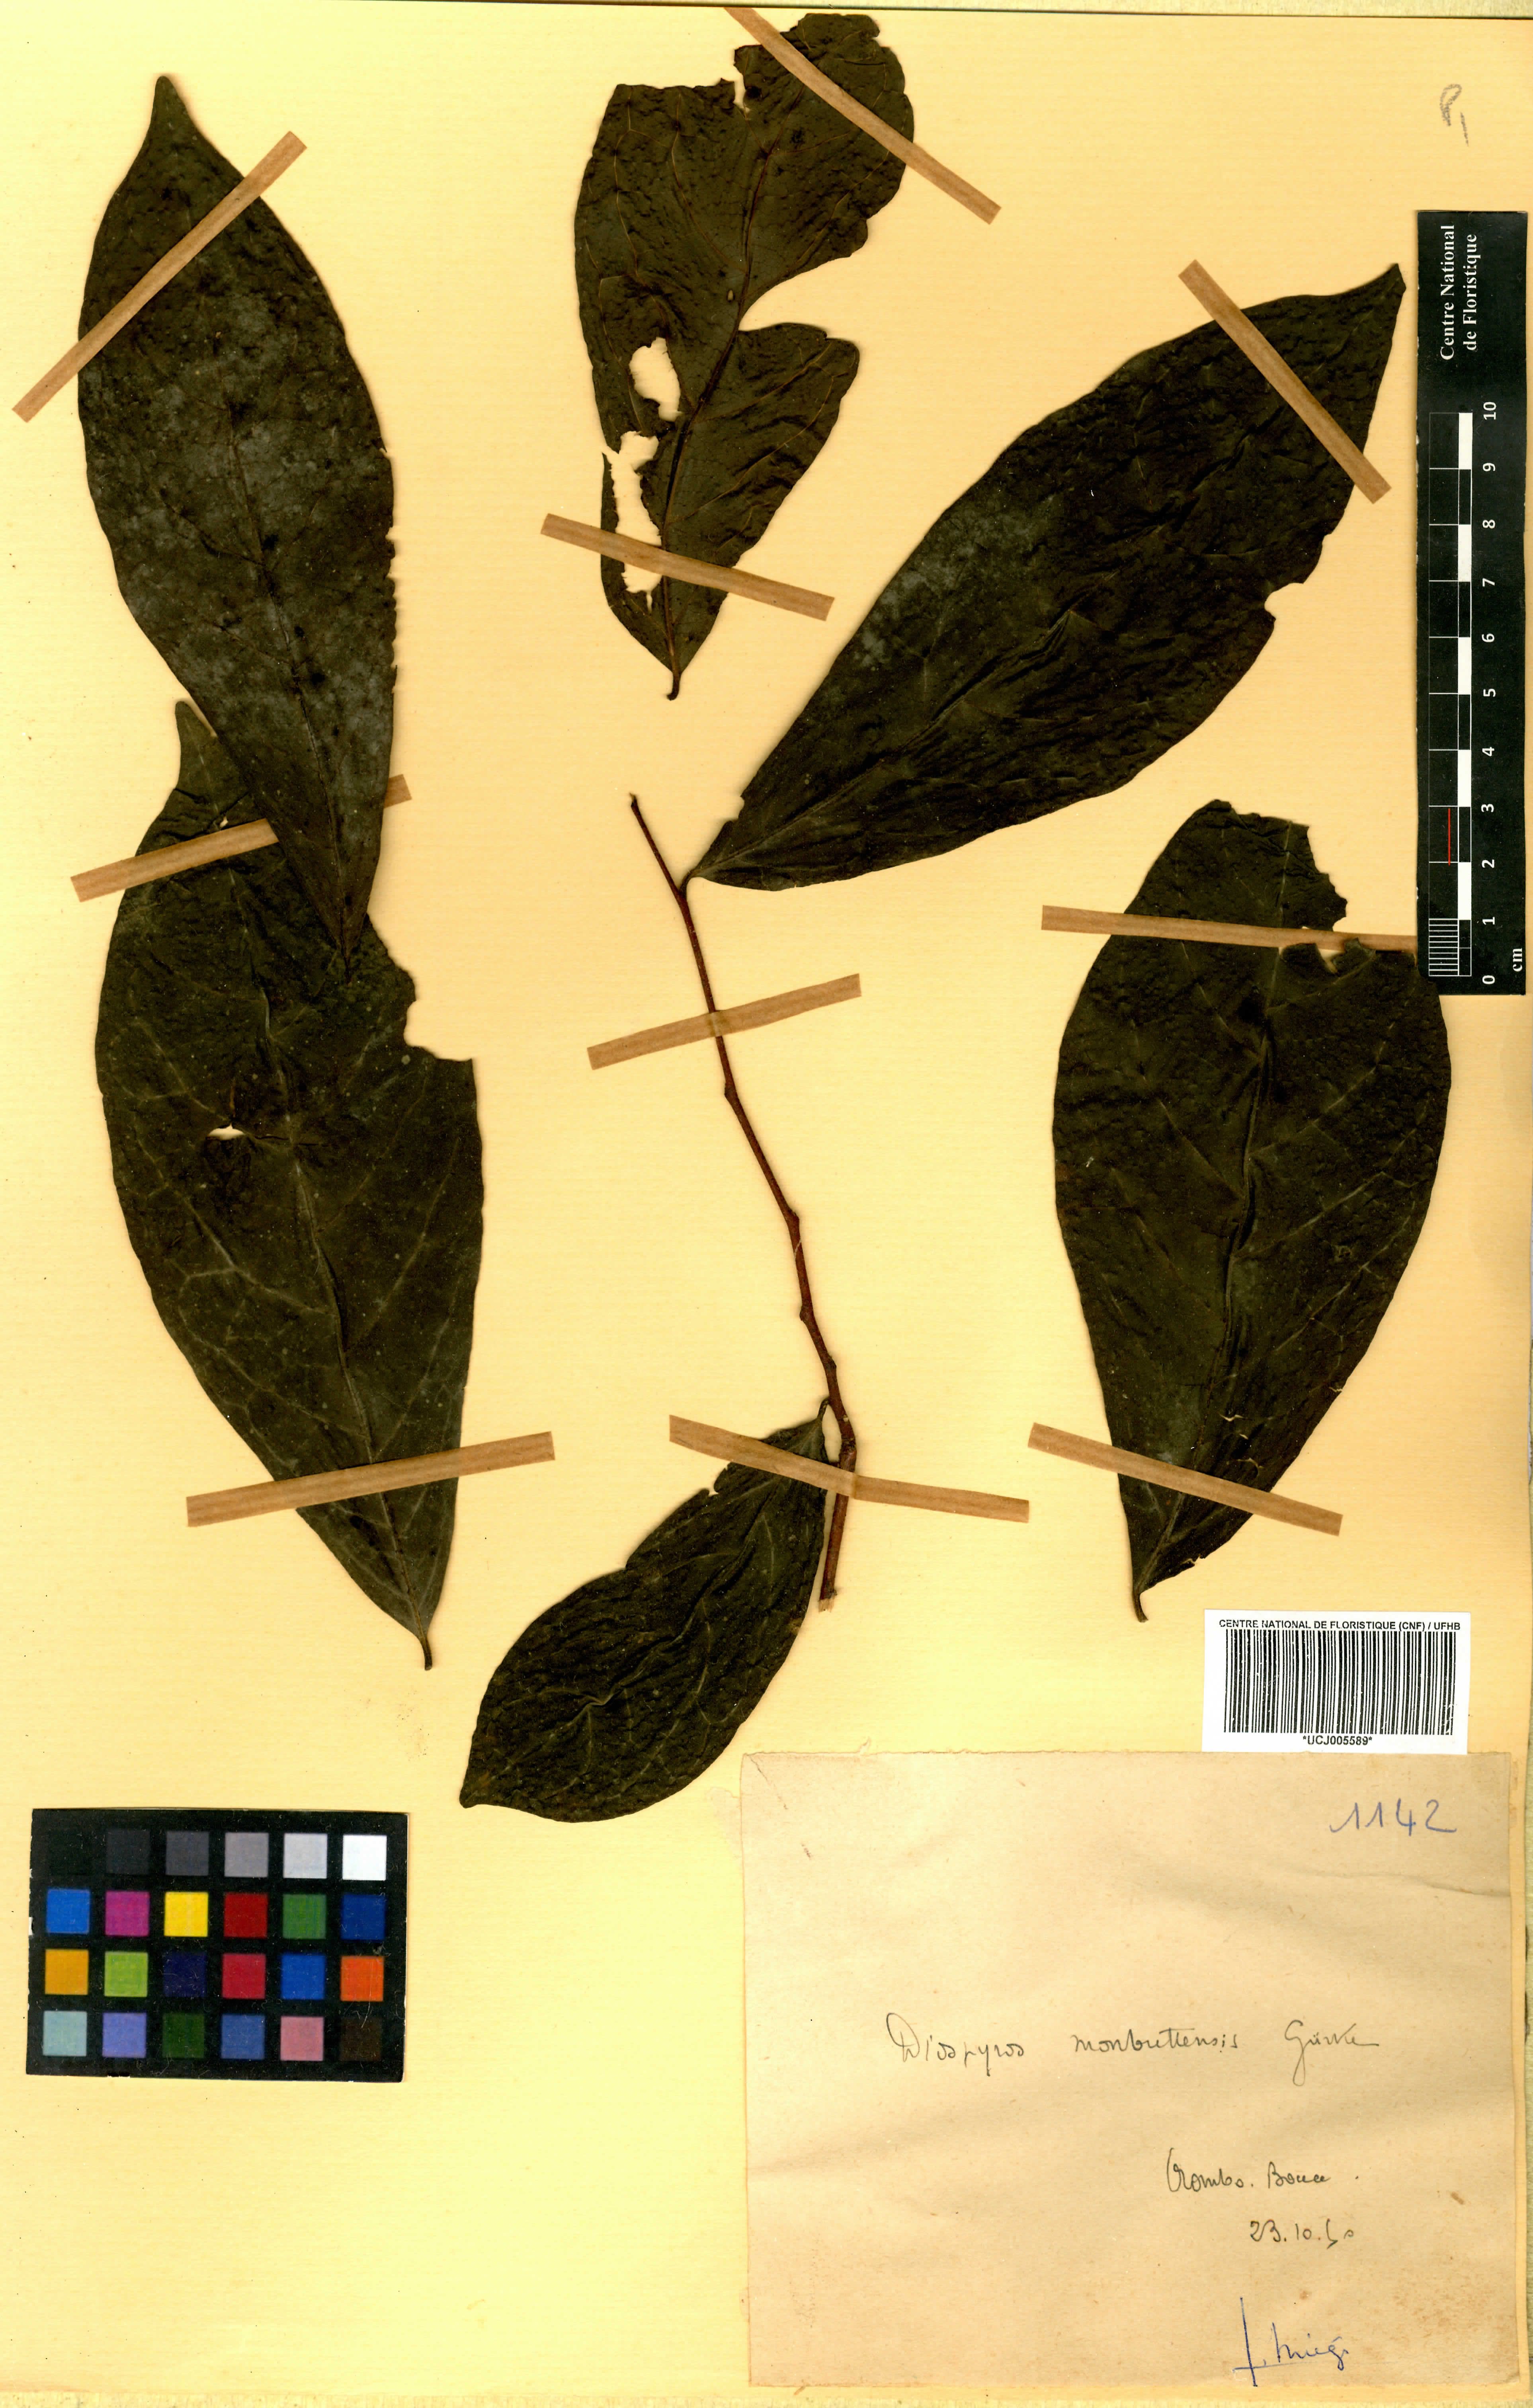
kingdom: Plantae
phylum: Tracheophyta
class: Magnoliopsida
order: Ericales
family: Ebenaceae
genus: Diospyros
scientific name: Diospyros monbuttensis
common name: Walking-stick ebony
